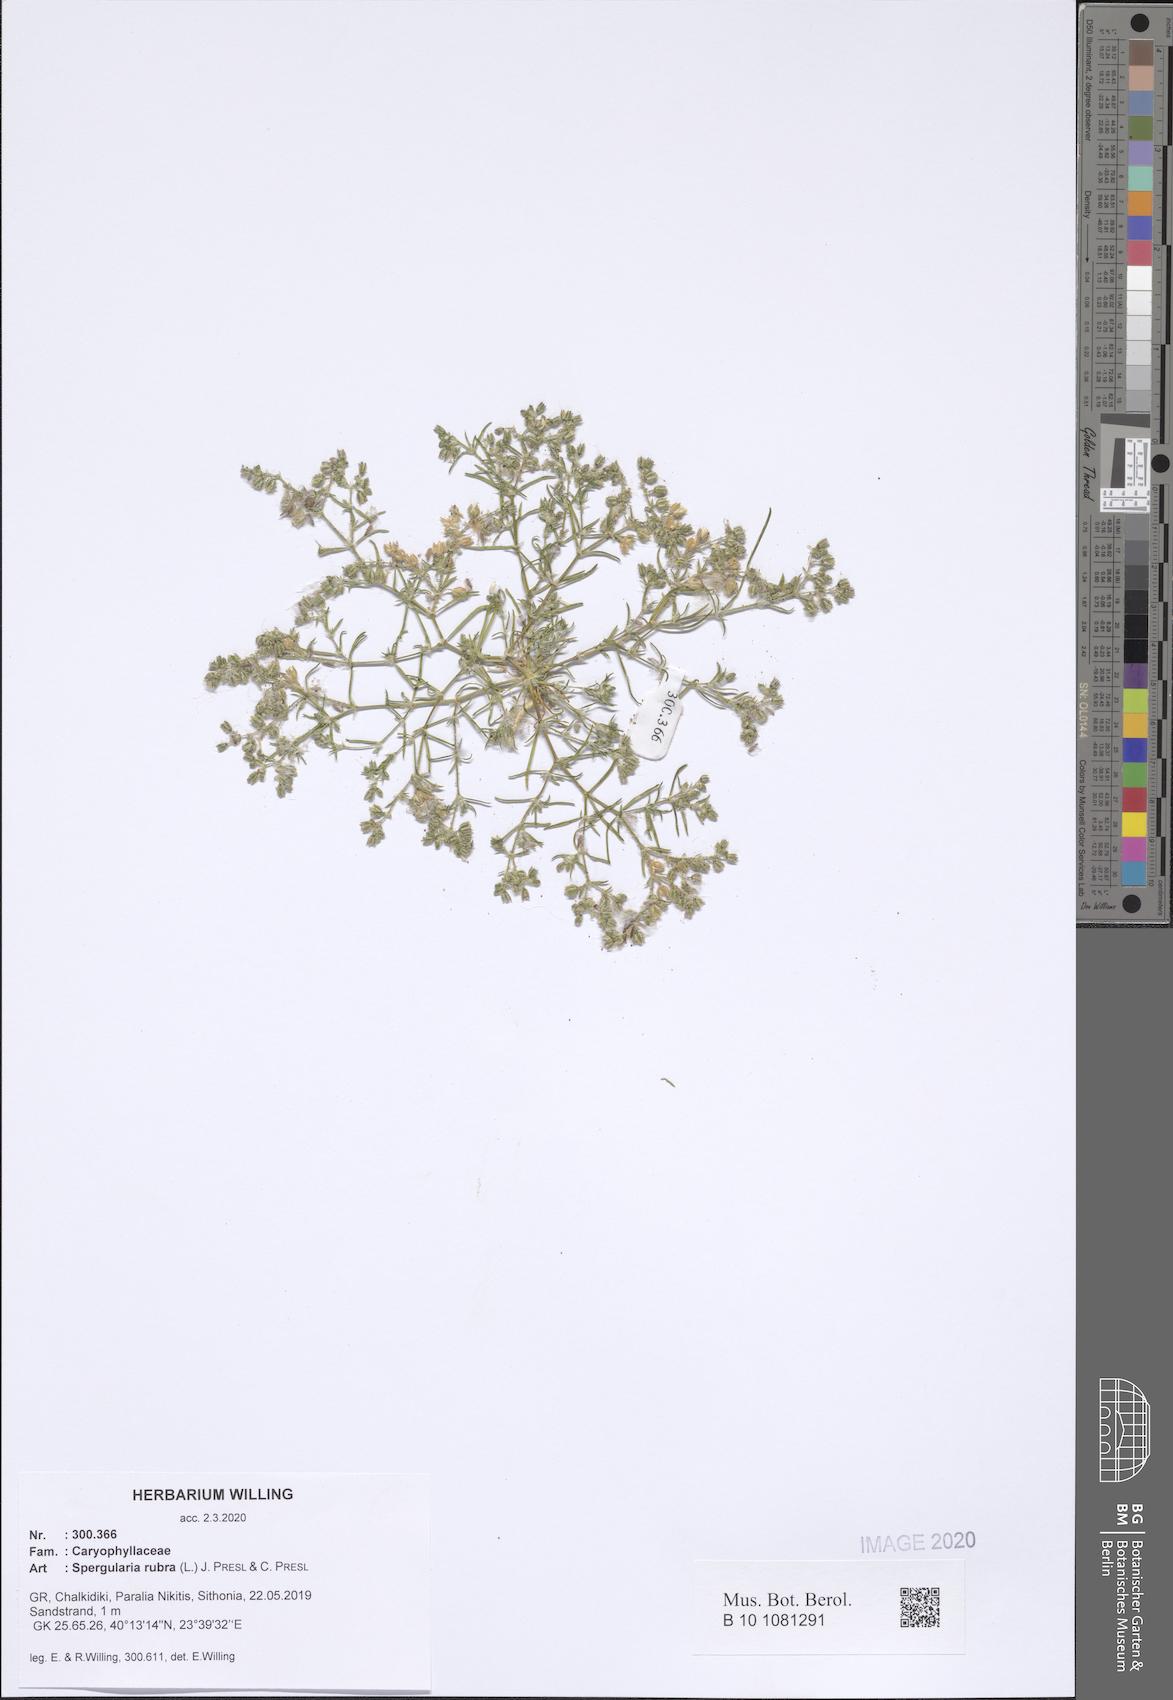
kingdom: Plantae
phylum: Tracheophyta
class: Magnoliopsida
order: Caryophyllales
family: Caryophyllaceae
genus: Spergularia
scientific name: Spergularia rubra
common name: Red sand-spurrey
